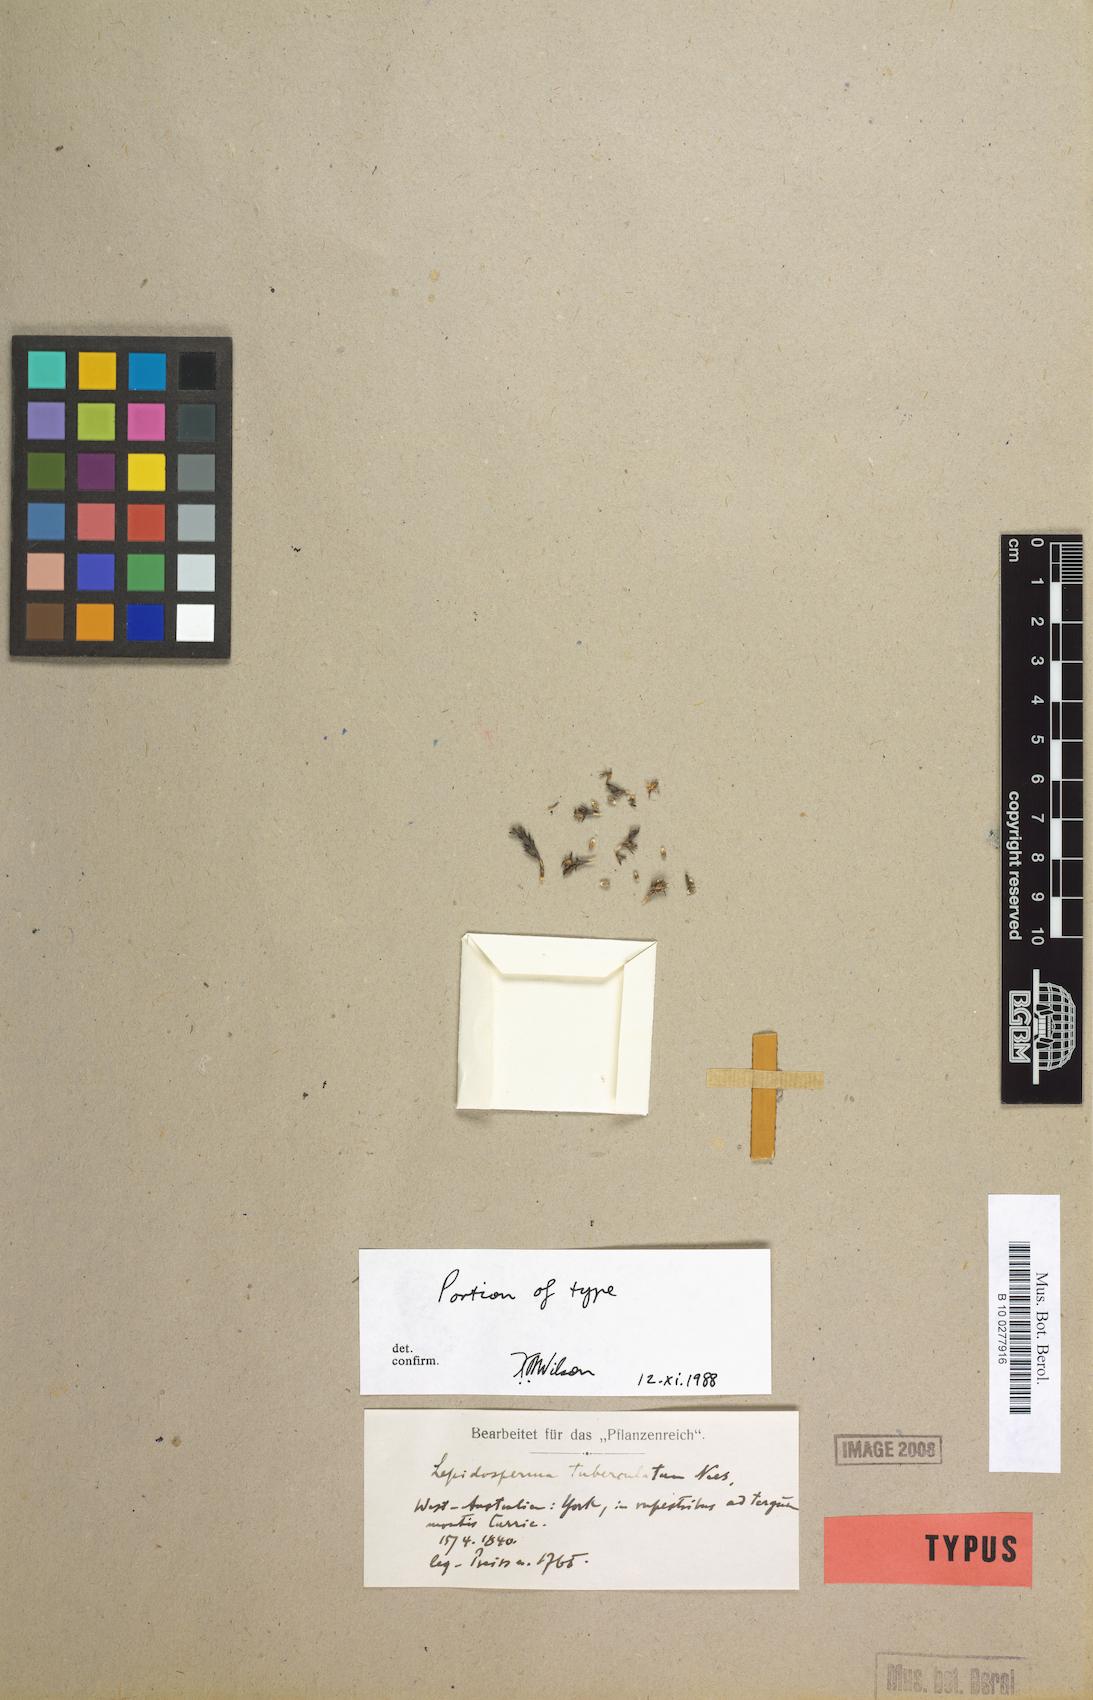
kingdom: Plantae
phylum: Tracheophyta
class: Liliopsida
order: Poales
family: Cyperaceae
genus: Lepidosperma
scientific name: Lepidosperma tuberculatum
